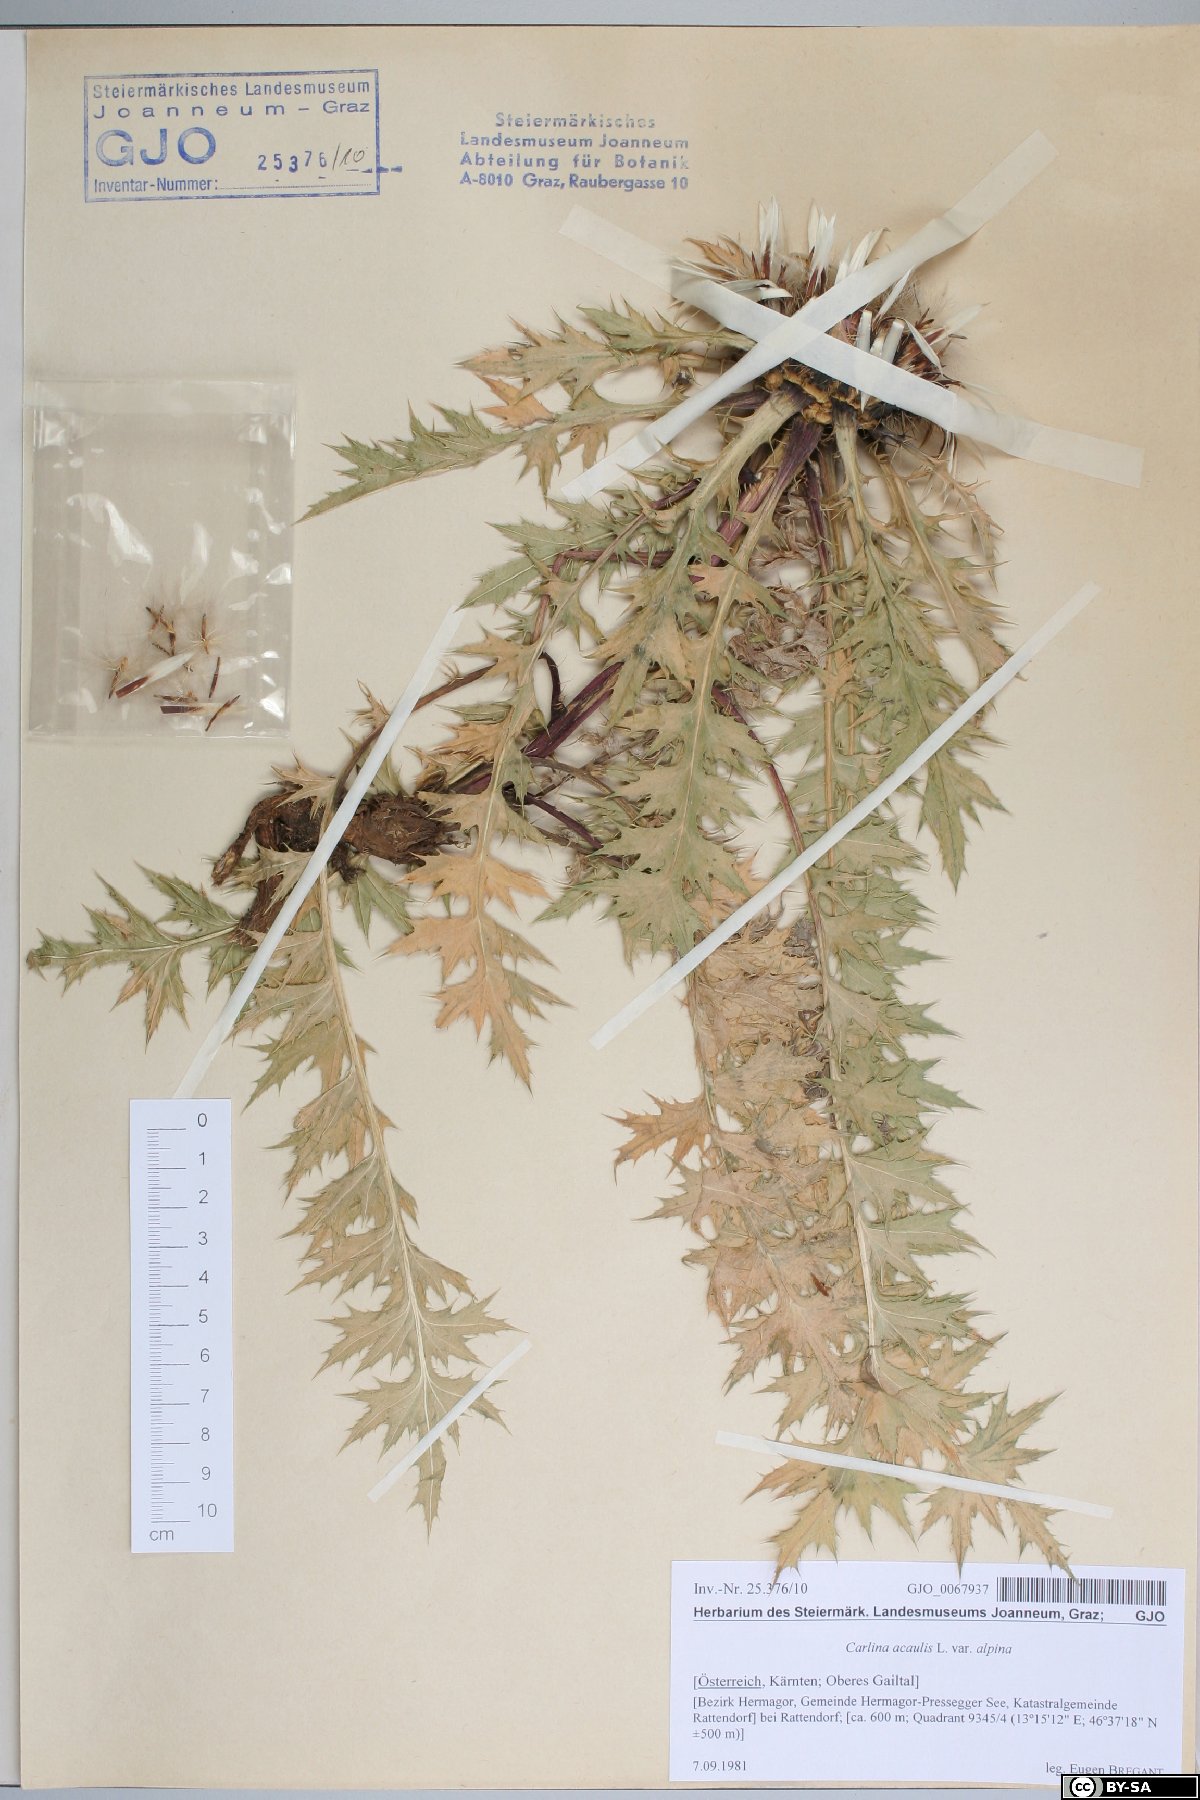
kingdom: Plantae
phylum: Tracheophyta
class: Magnoliopsida
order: Asterales
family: Asteraceae
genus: Carlina
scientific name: Carlina acaulis
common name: Stemless carline thistle
